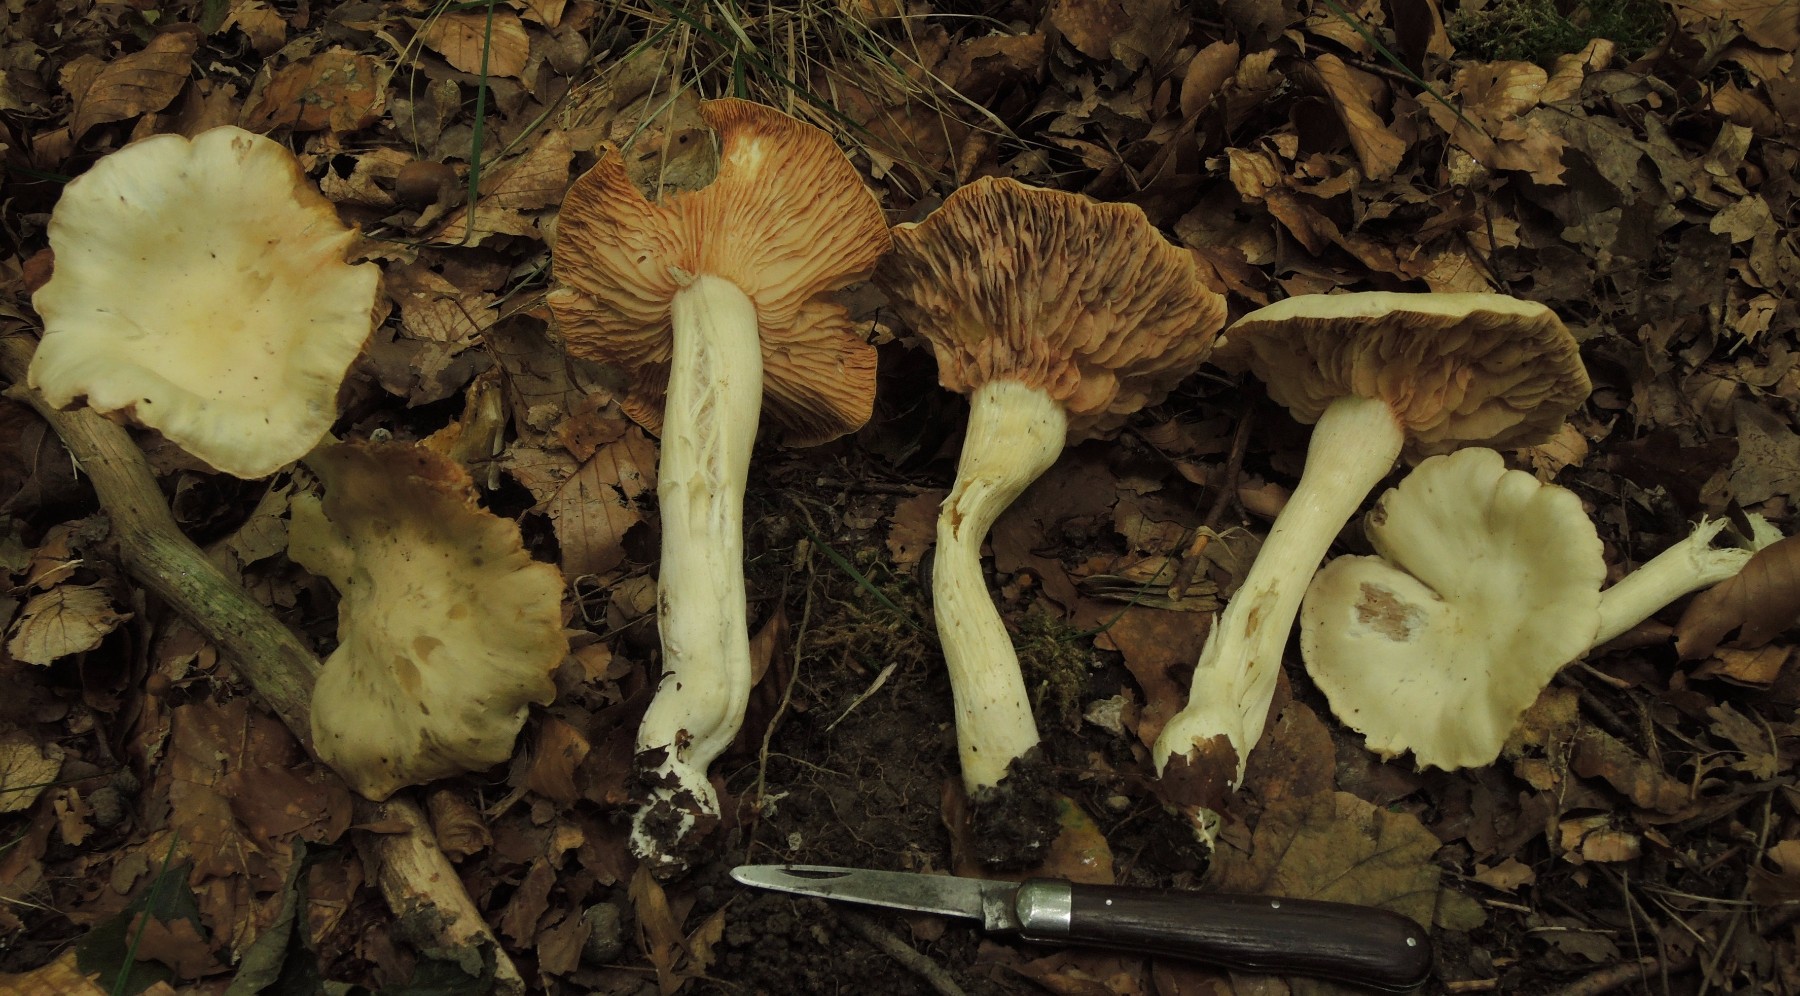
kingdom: Fungi
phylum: Basidiomycota
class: Agaricomycetes
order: Agaricales
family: Entolomataceae
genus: Entoloma
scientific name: Entoloma sinuatum
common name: giftig rødblad
